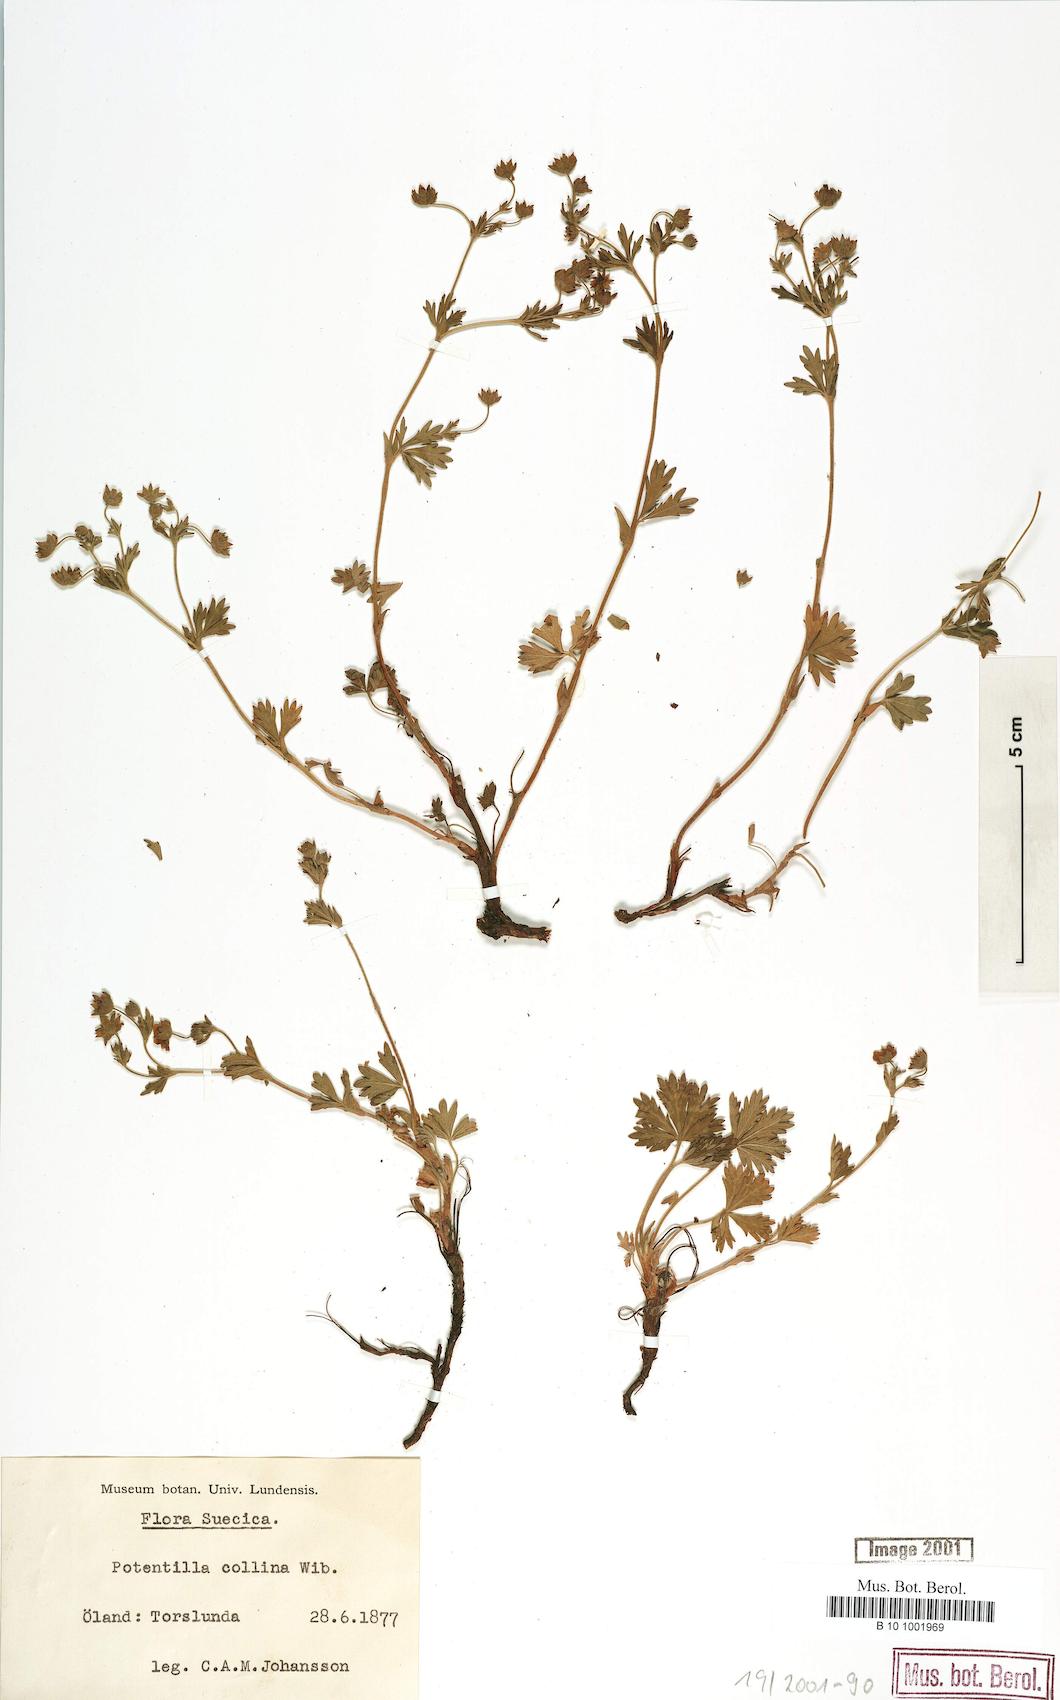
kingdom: Plantae
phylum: Tracheophyta
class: Magnoliopsida
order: Rosales
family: Rosaceae
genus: Potentilla
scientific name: Potentilla collina
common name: Palmleaf cinquefoil
